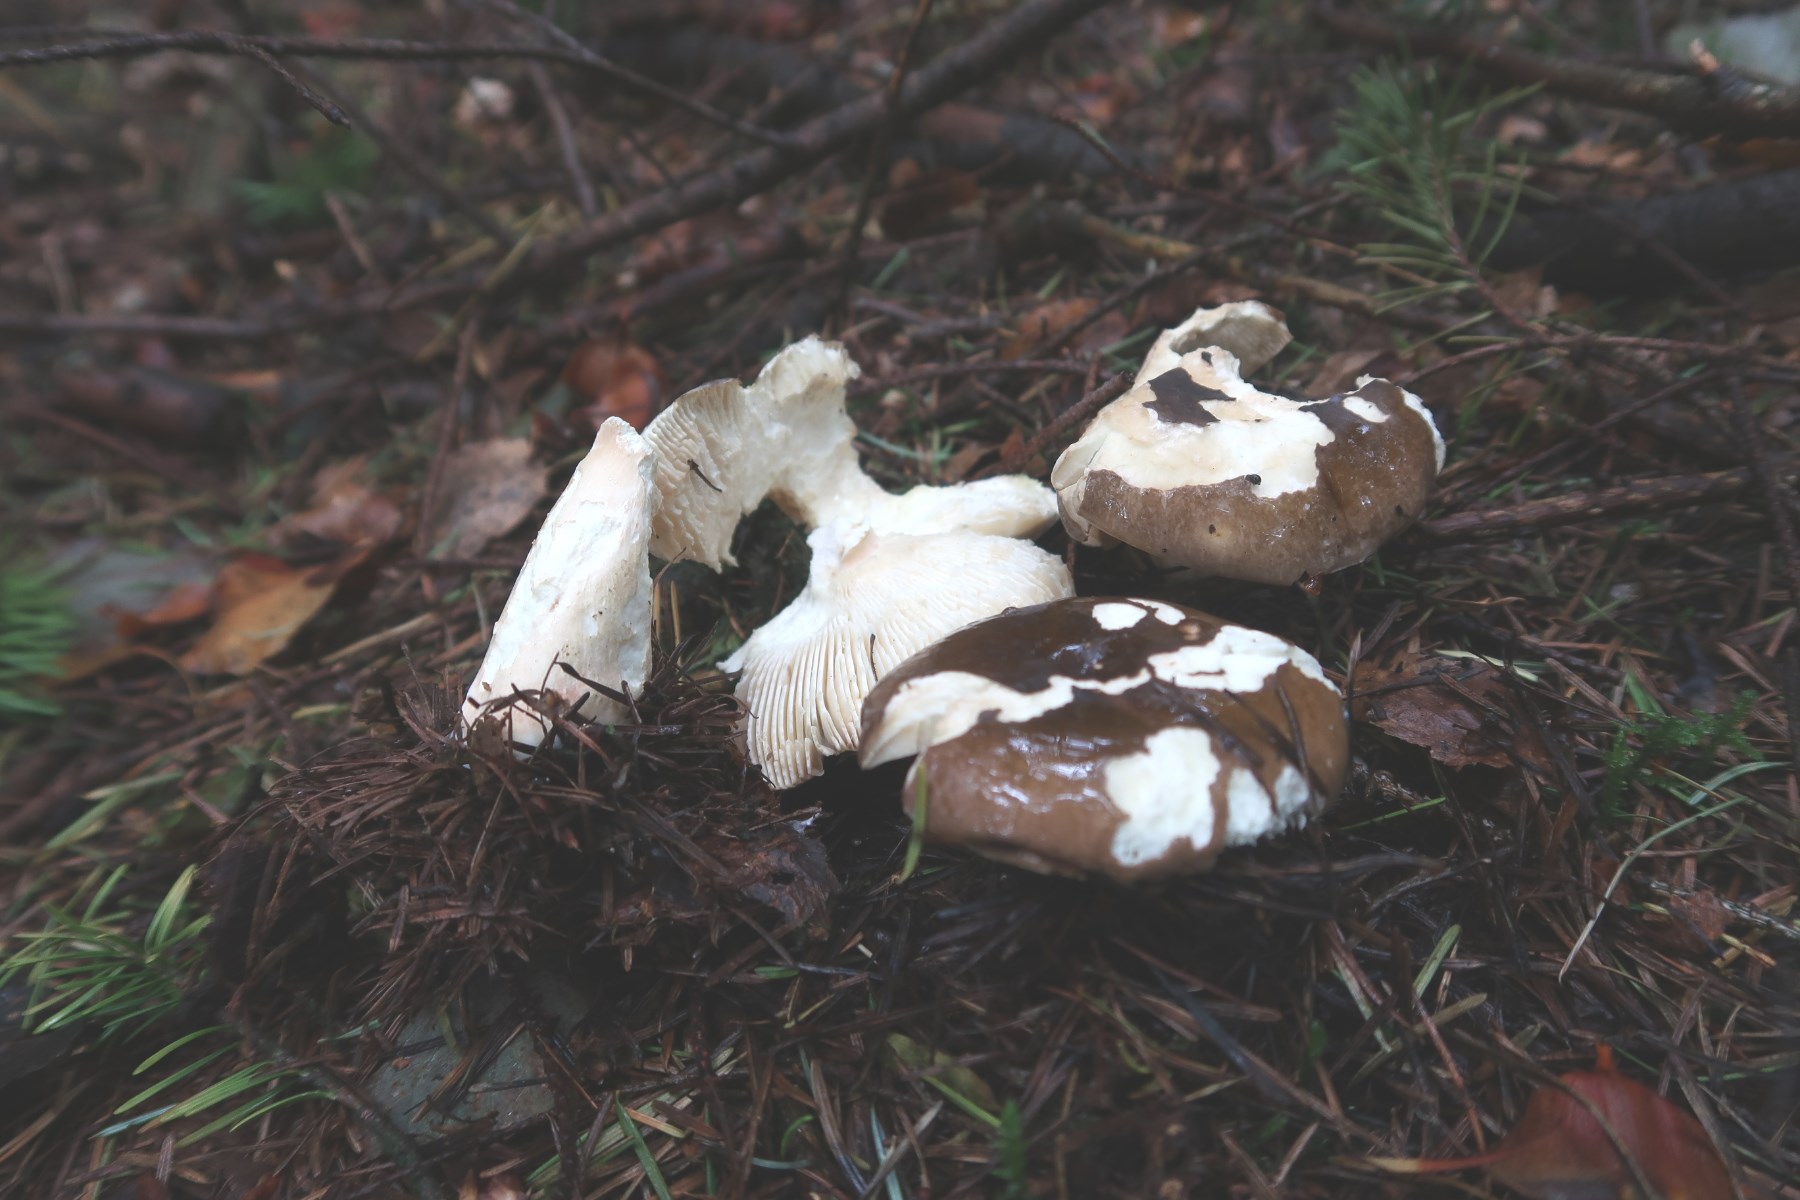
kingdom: Fungi
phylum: Basidiomycota
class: Agaricomycetes
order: Russulales
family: Russulaceae
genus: Russula
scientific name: Russula clavipes
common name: olivengrøn skørhat
